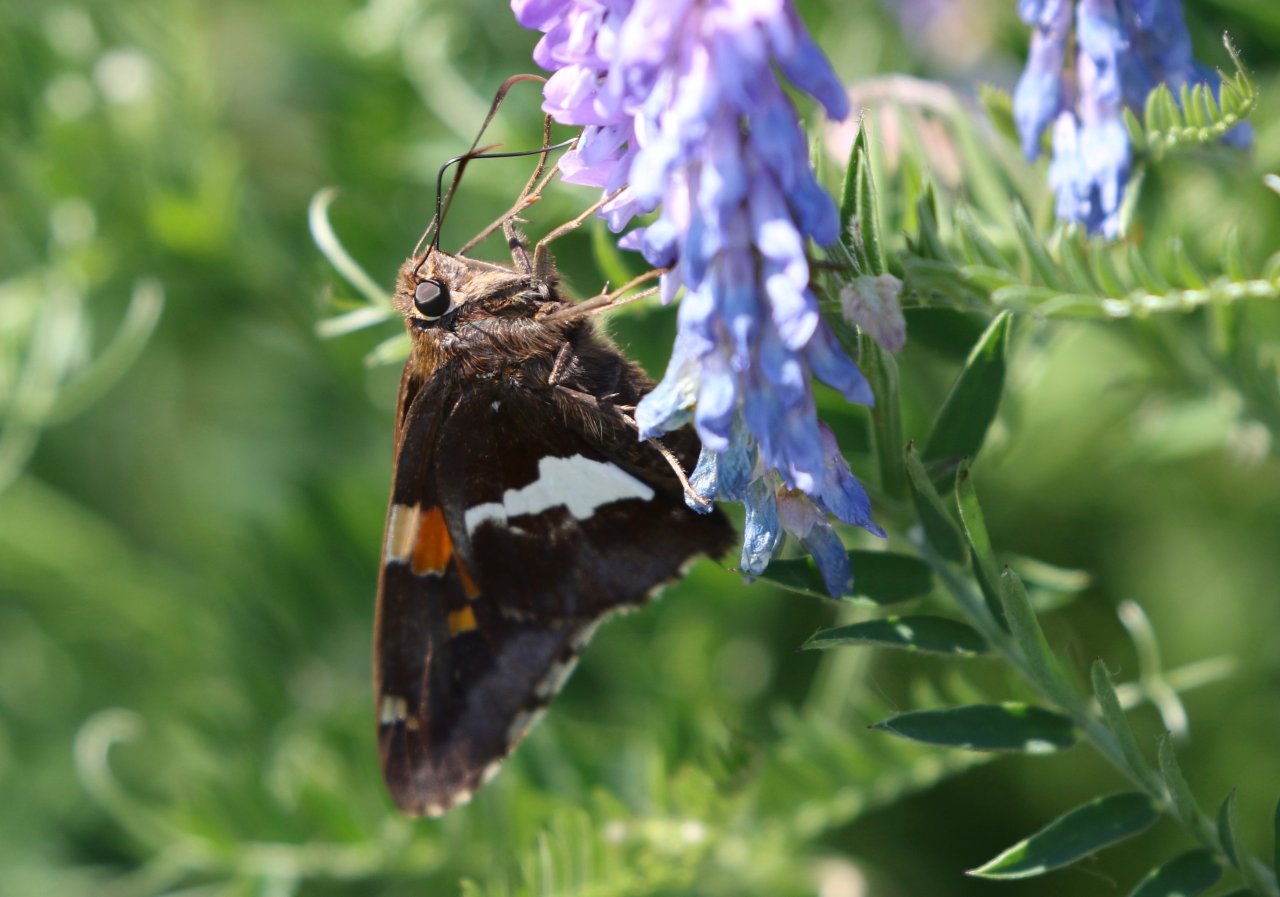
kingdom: Animalia
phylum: Arthropoda
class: Insecta
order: Lepidoptera
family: Hesperiidae
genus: Epargyreus
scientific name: Epargyreus clarus
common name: Silver-spotted Skipper
